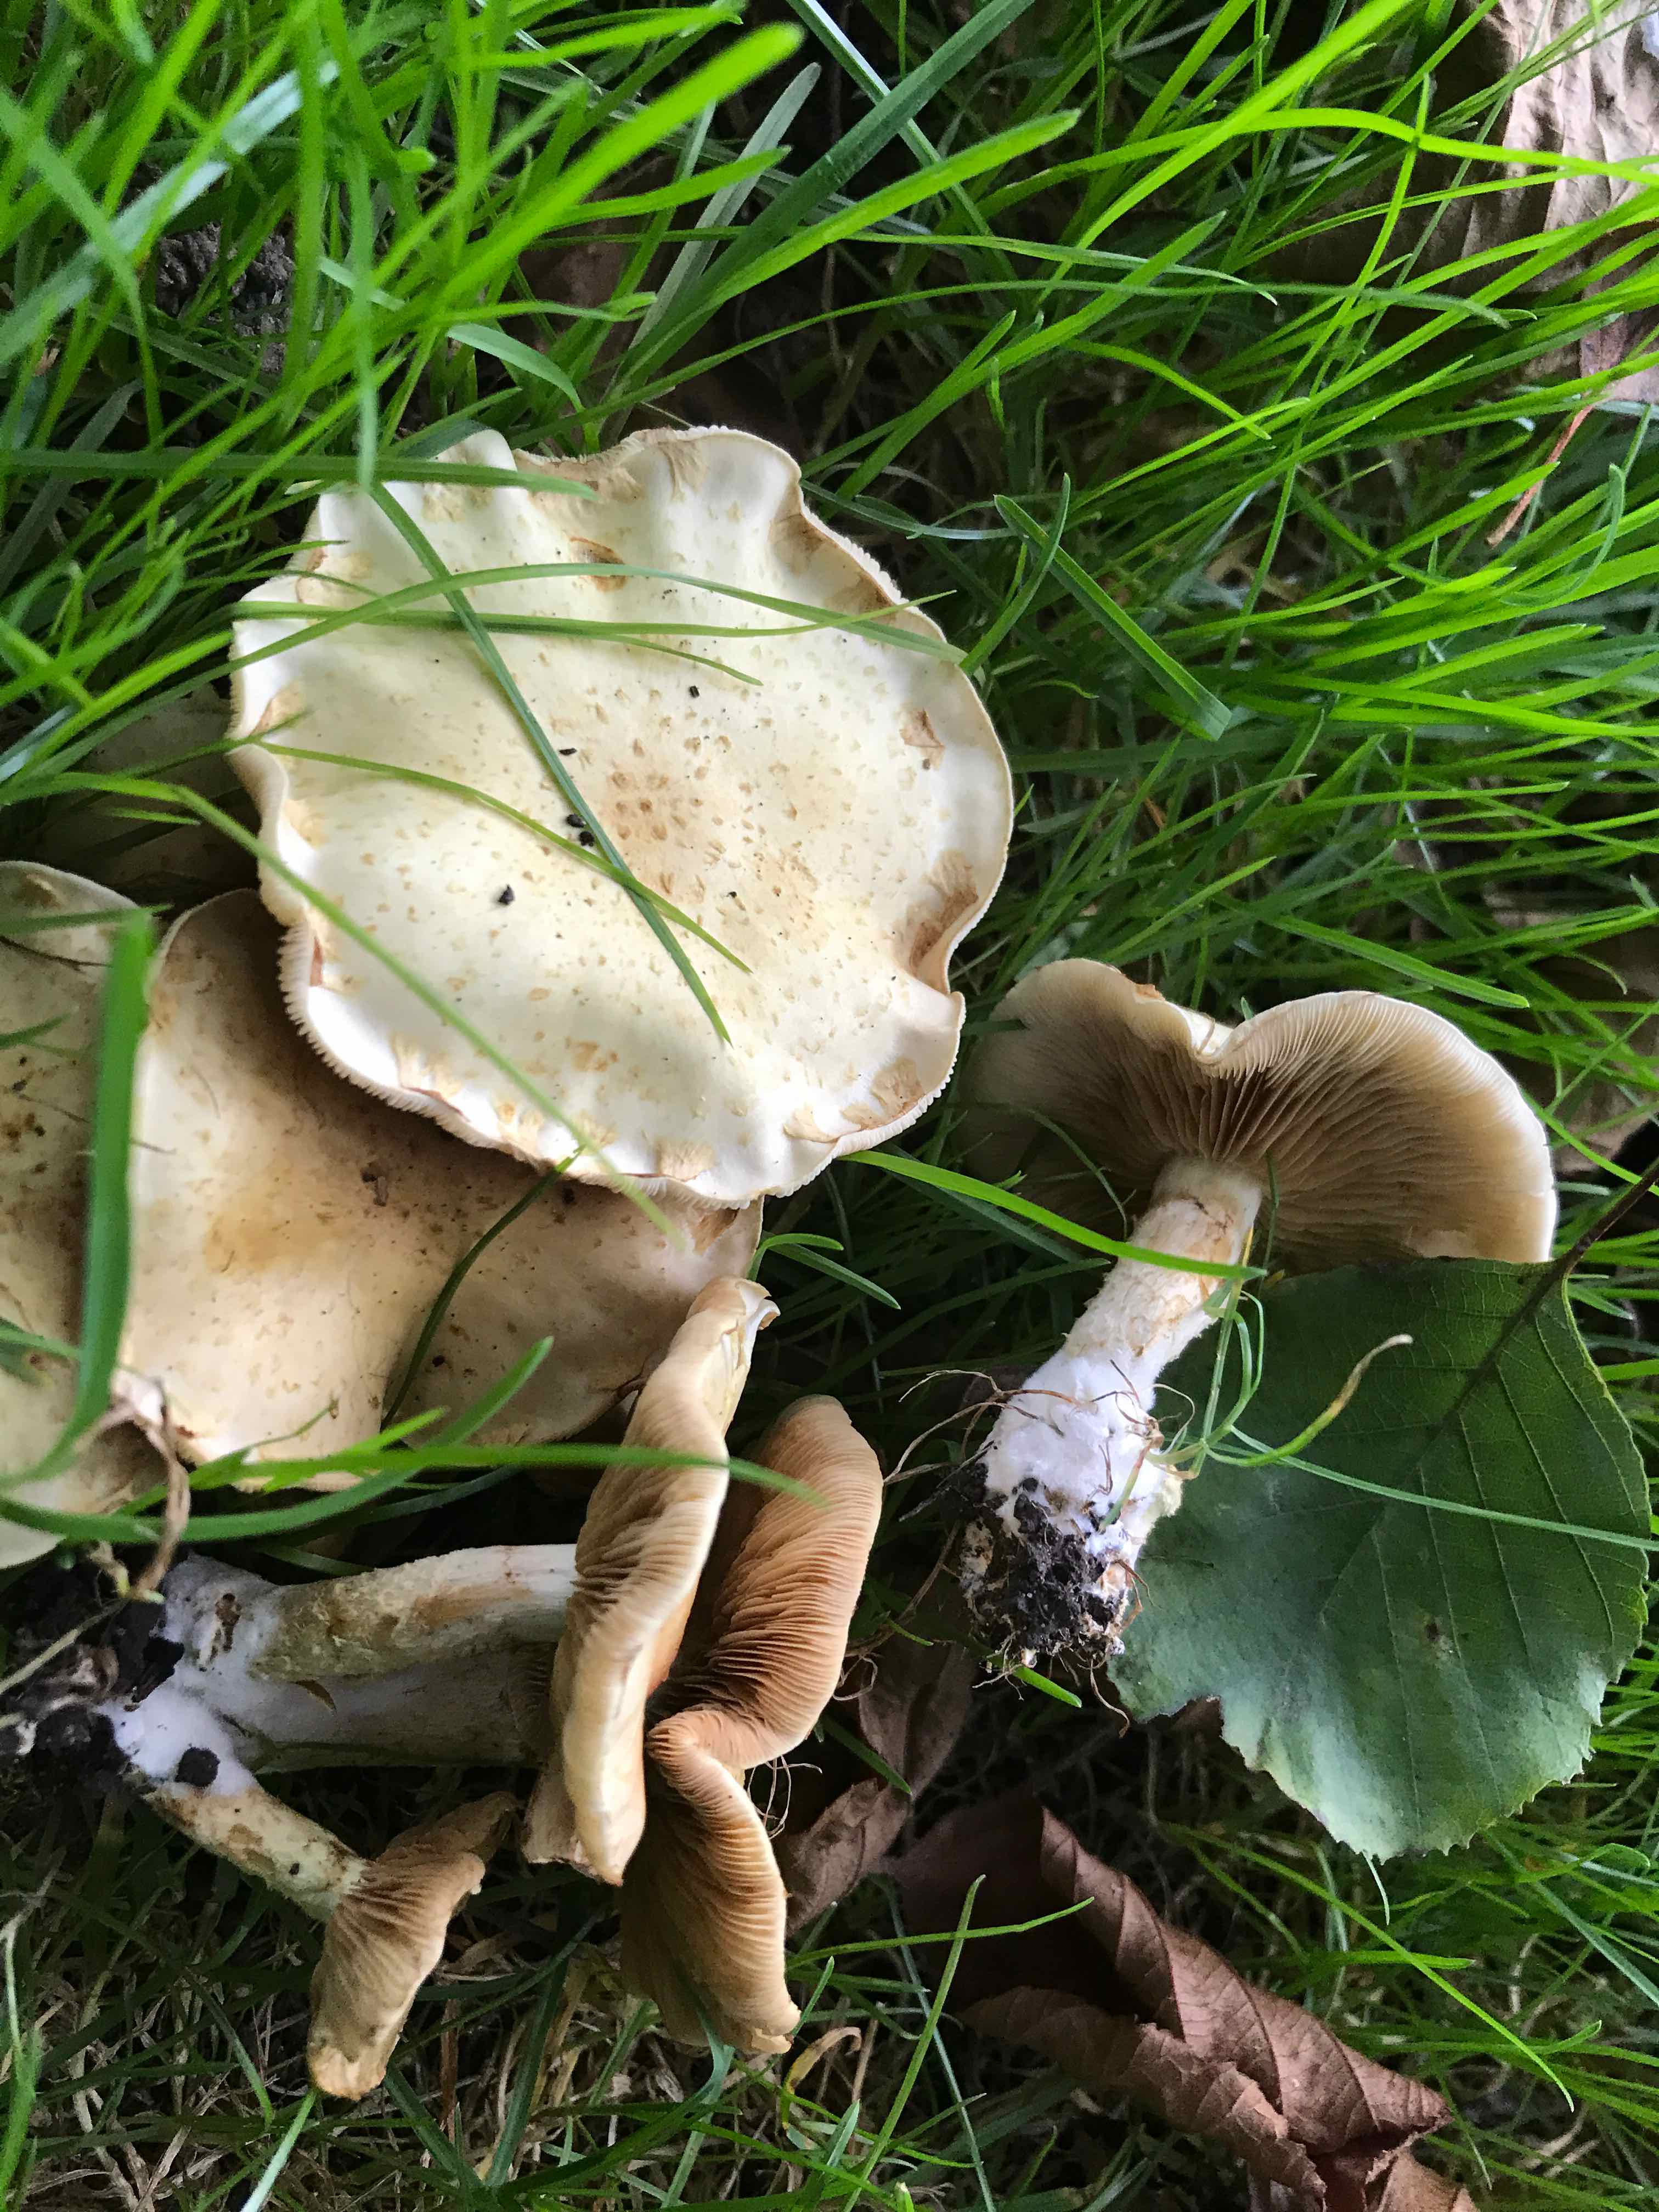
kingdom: Fungi
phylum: Basidiomycota
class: Agaricomycetes
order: Agaricales
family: Strophariaceae
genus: Pholiota
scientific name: Pholiota gummosa
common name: grøngul skælhat
